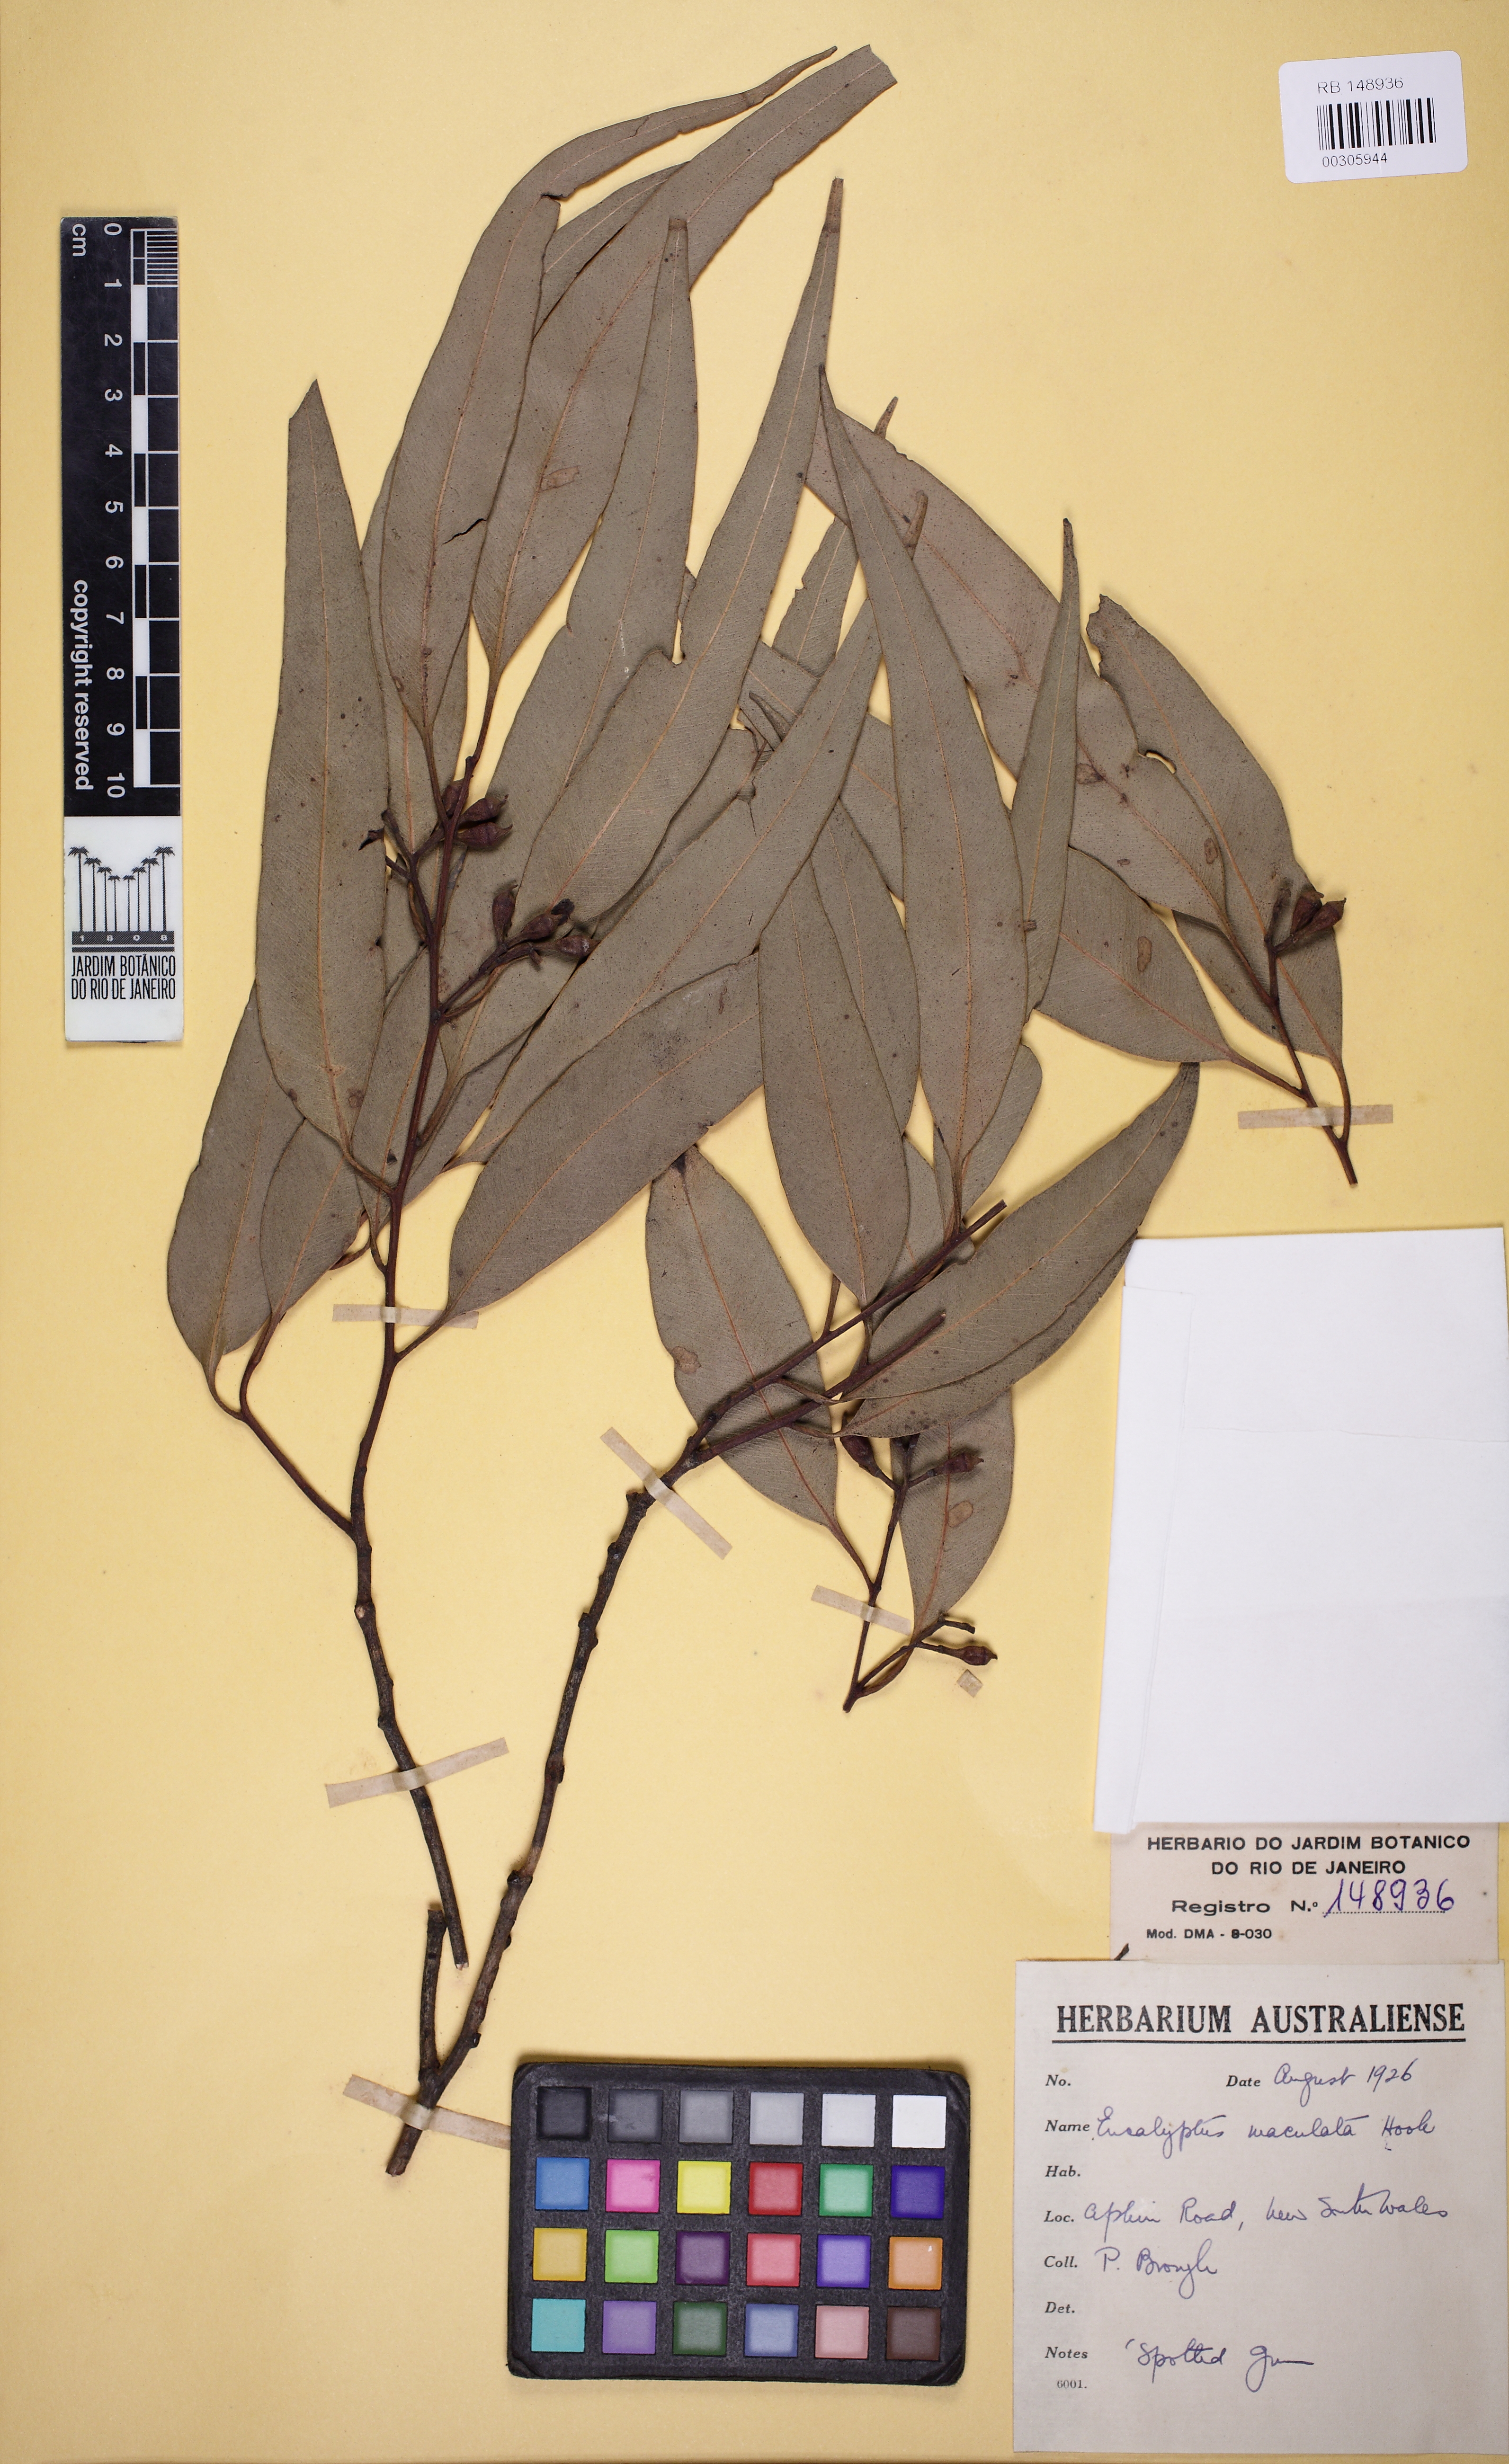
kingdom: Plantae
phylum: Tracheophyta
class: Magnoliopsida
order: Myrtales
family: Myrtaceae
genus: Corymbia
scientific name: Corymbia maculata
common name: Spotted gum
